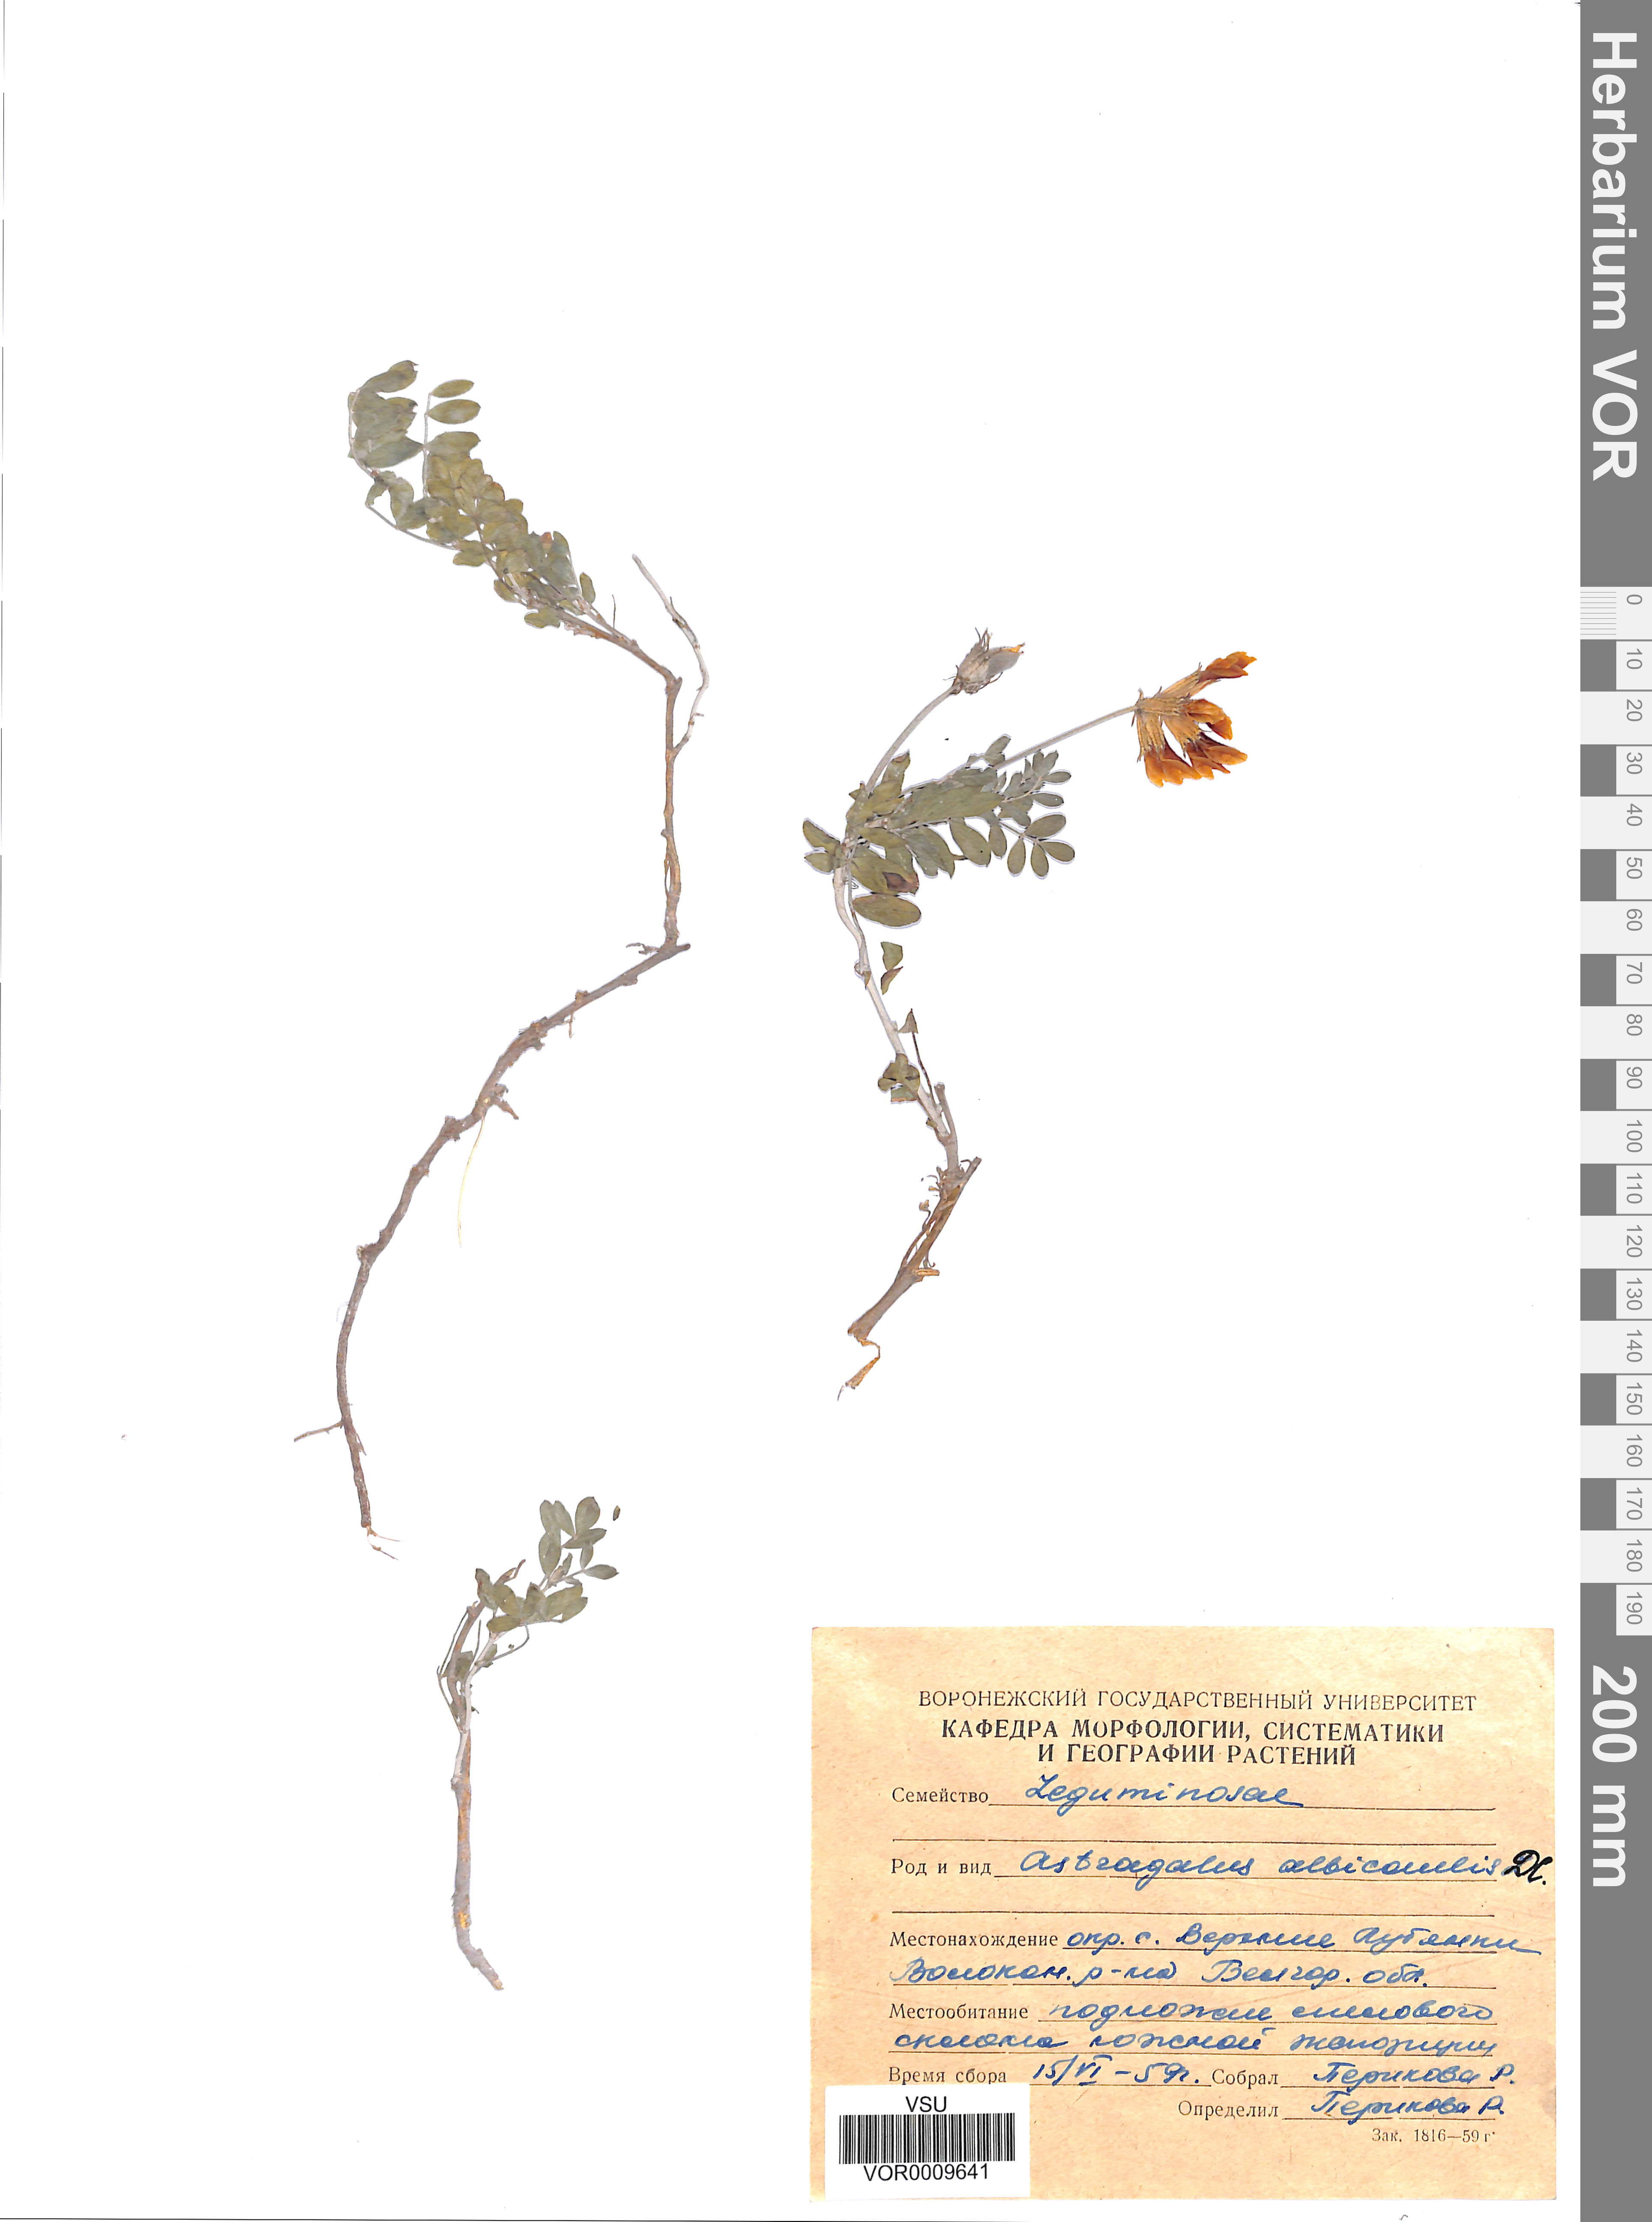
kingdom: Plantae
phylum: Tracheophyta
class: Magnoliopsida
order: Fabales
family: Fabaceae
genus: Astragalus
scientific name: Astragalus albicaulis
